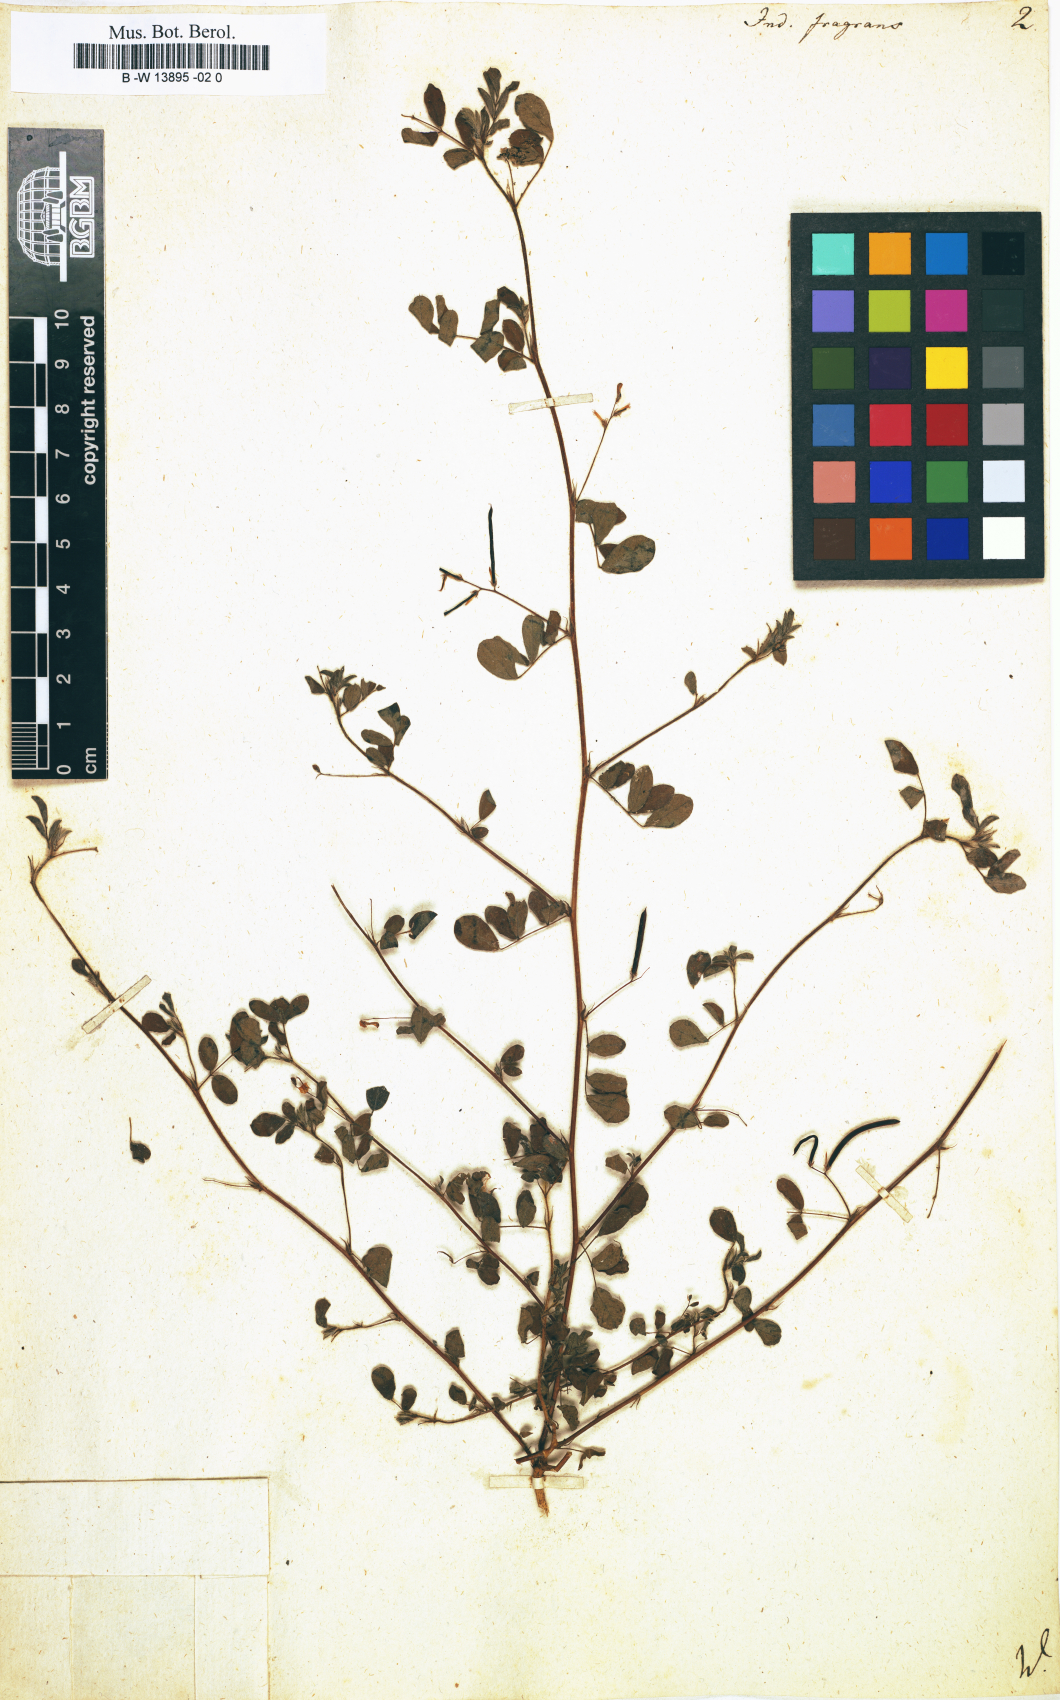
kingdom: Plantae
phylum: Tracheophyta
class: Magnoliopsida
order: Fabales
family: Fabaceae
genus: Indigofera
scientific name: Indigofera glabra
